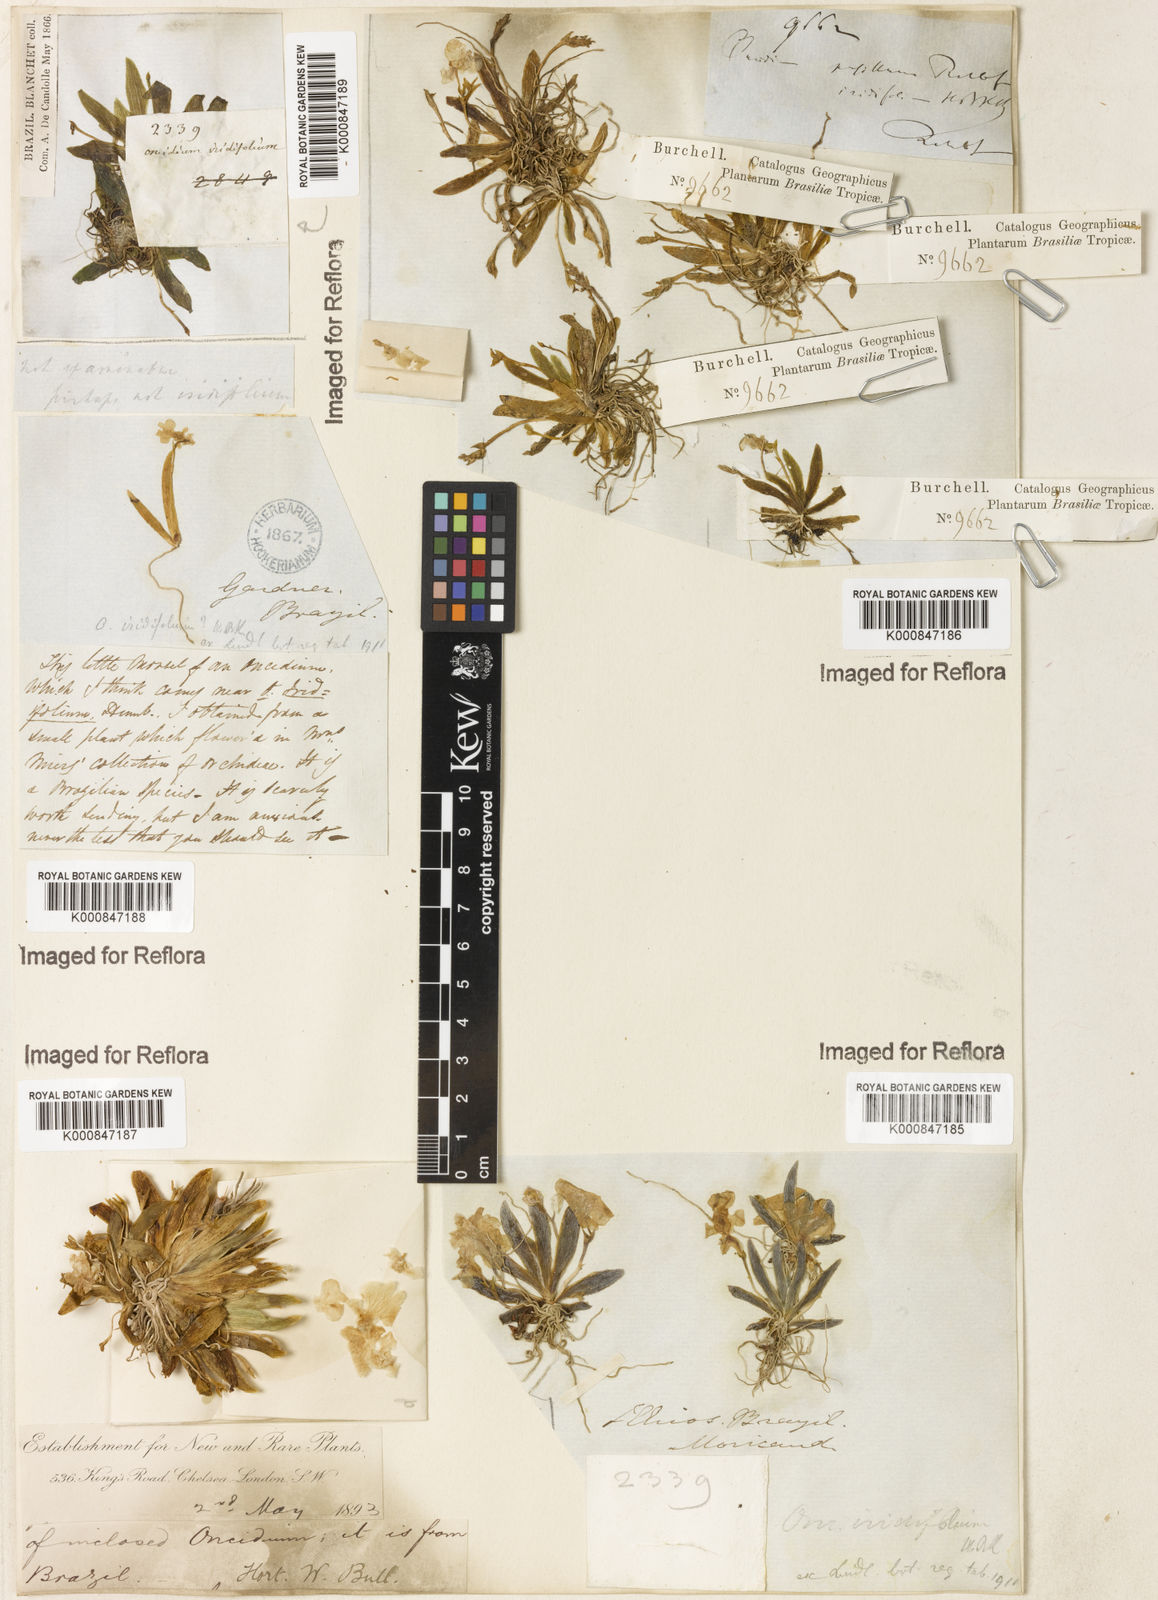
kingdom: Plantae
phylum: Tracheophyta
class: Liliopsida
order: Asparagales
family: Orchidaceae
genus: Oncidium
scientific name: Oncidium
